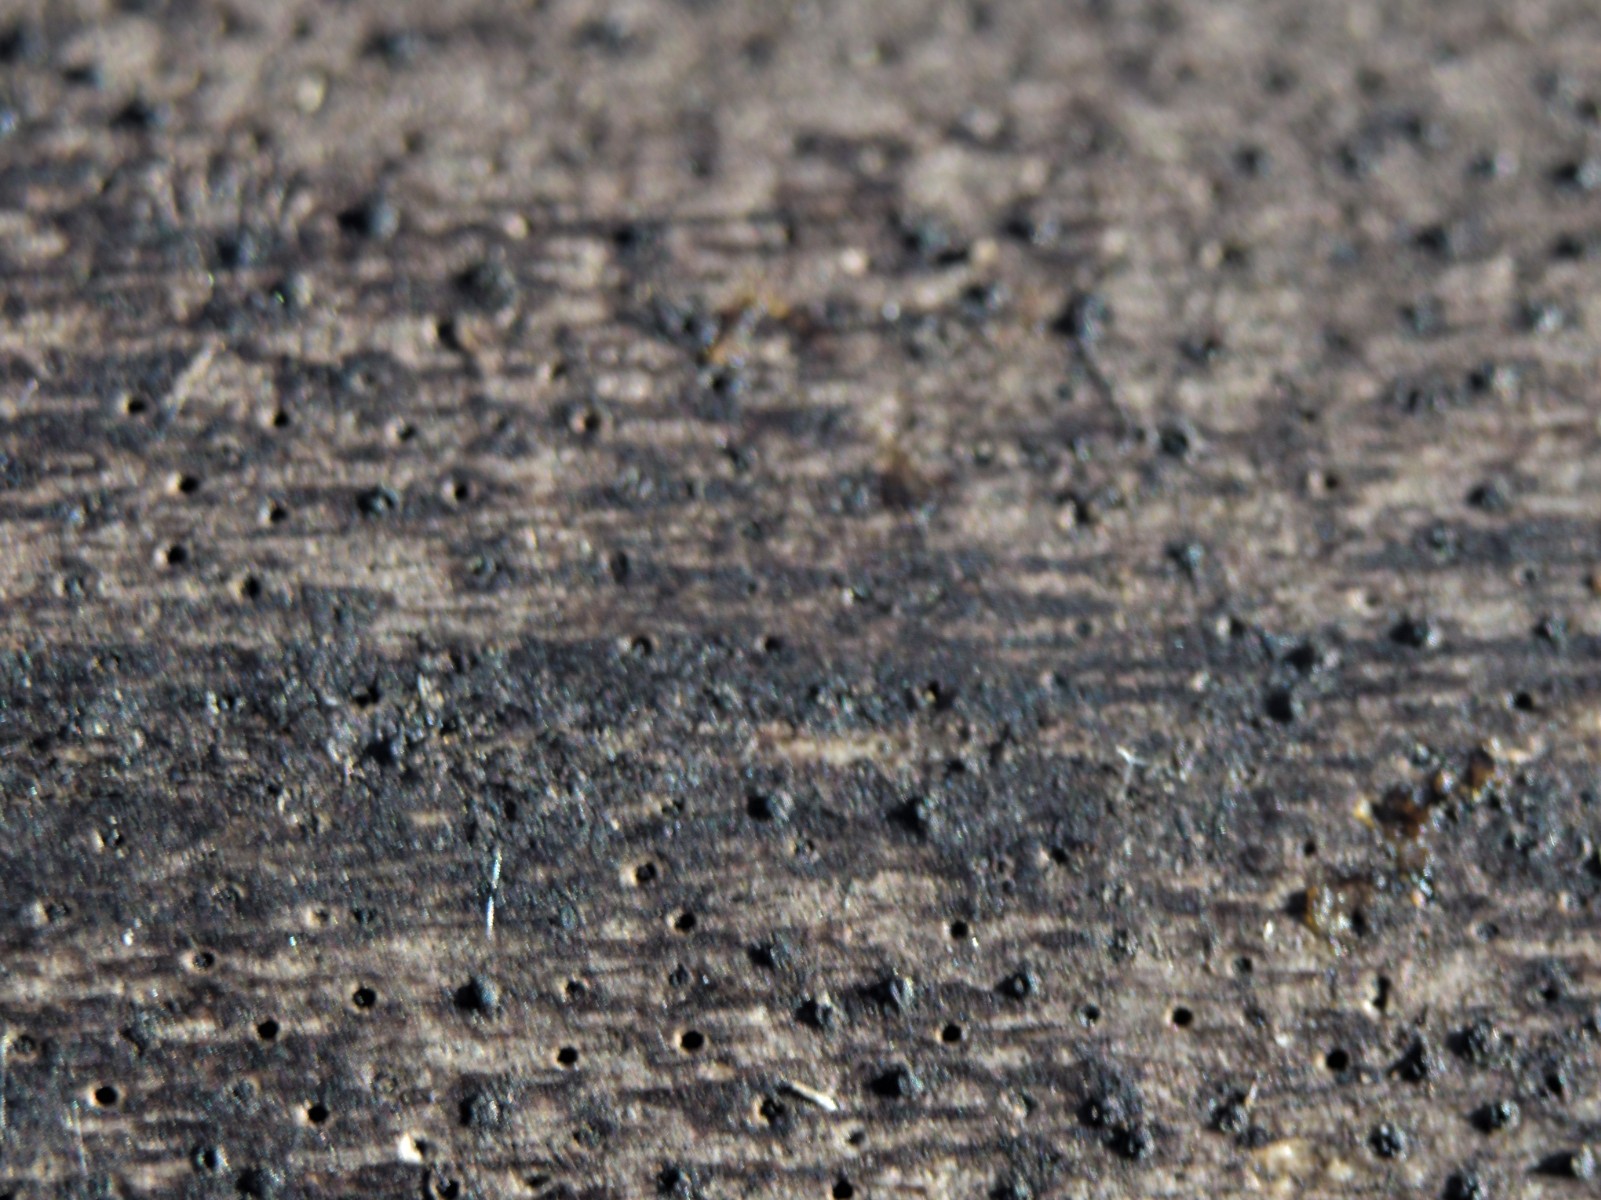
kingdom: Fungi
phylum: Ascomycota
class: Sordariomycetes
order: Xylariales
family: Diatrypaceae
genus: Eutypa
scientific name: Eutypa maura
